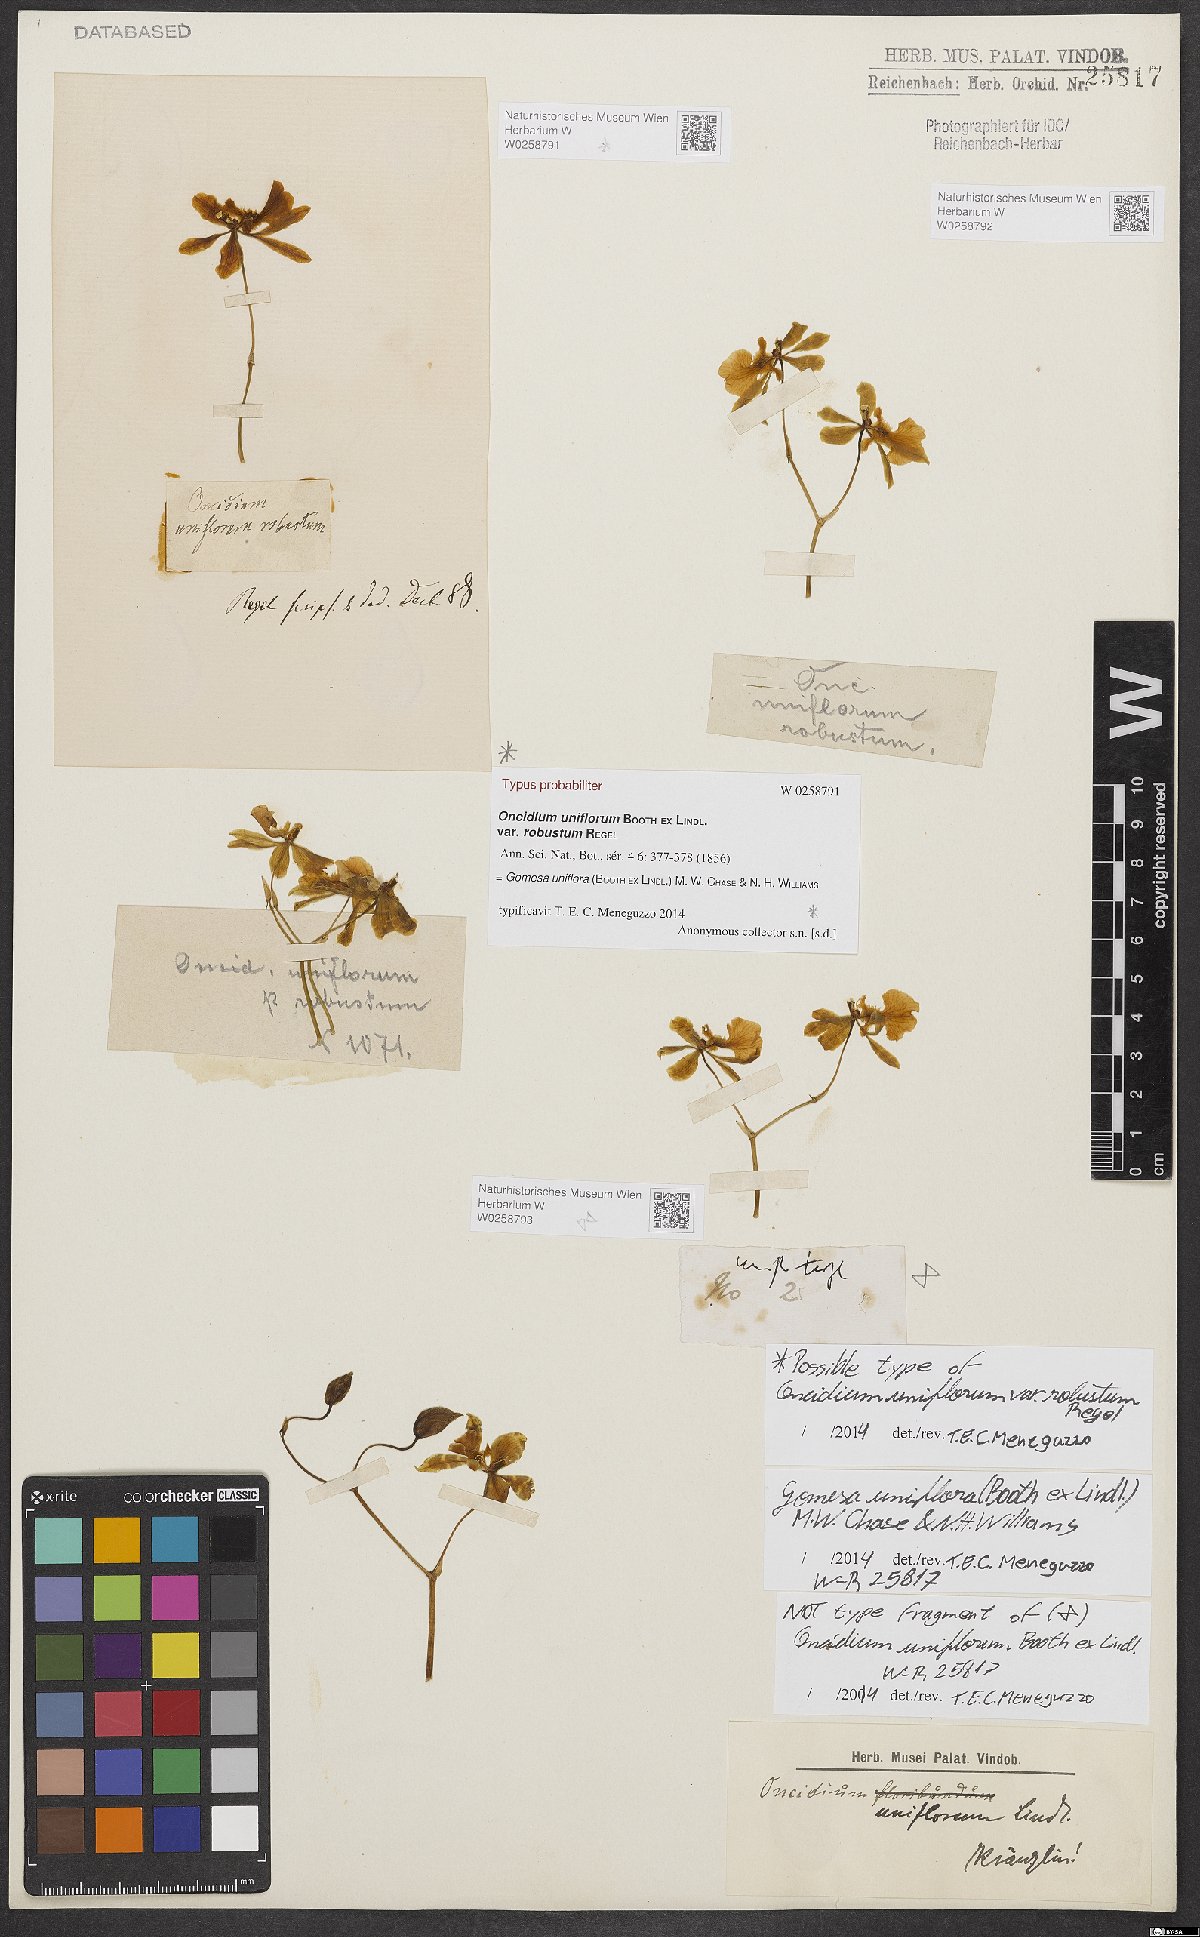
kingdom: Plantae
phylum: Tracheophyta
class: Liliopsida
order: Asparagales
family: Orchidaceae
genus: Gomesa
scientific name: Gomesa uniflora
